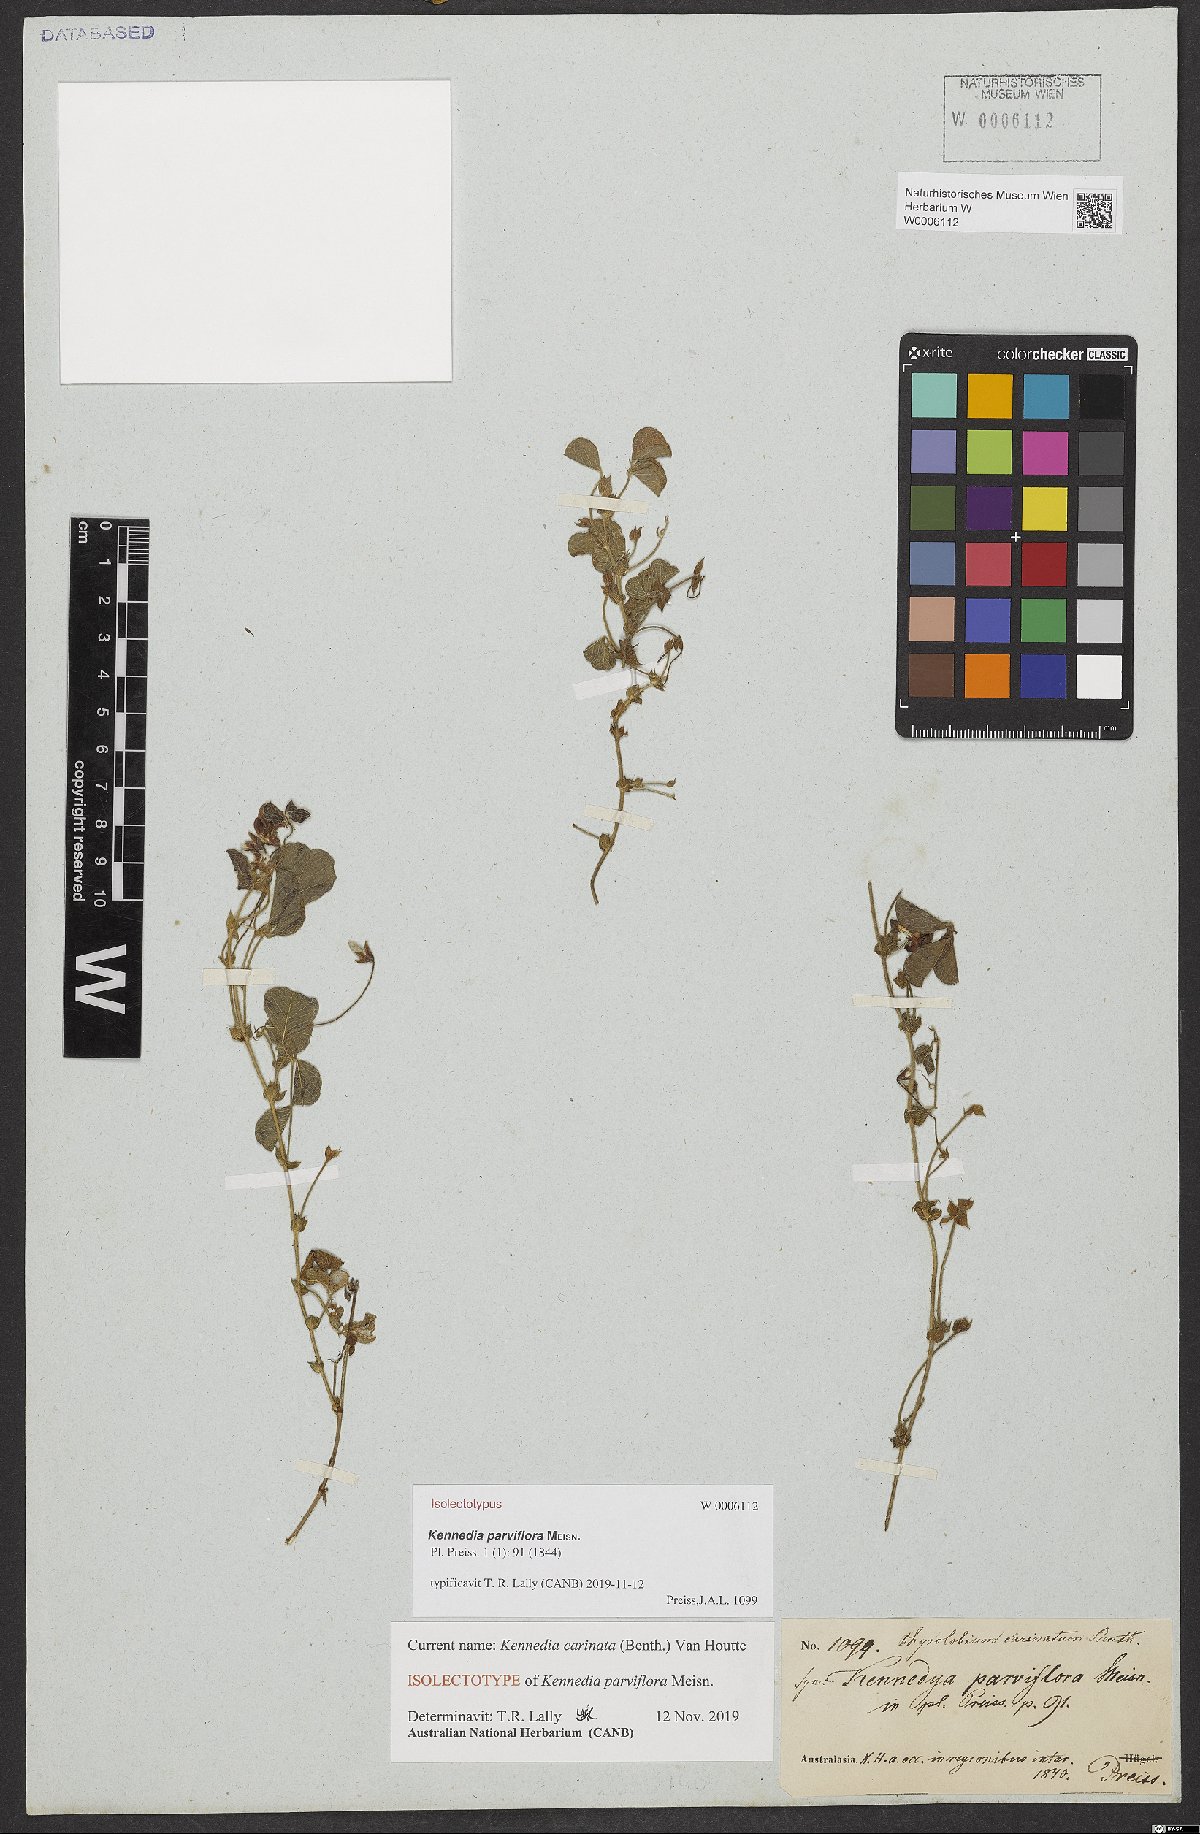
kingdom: Plantae
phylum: Tracheophyta
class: Magnoliopsida
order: Fabales
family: Fabaceae
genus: Kennedia
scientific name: Kennedia parviflora
